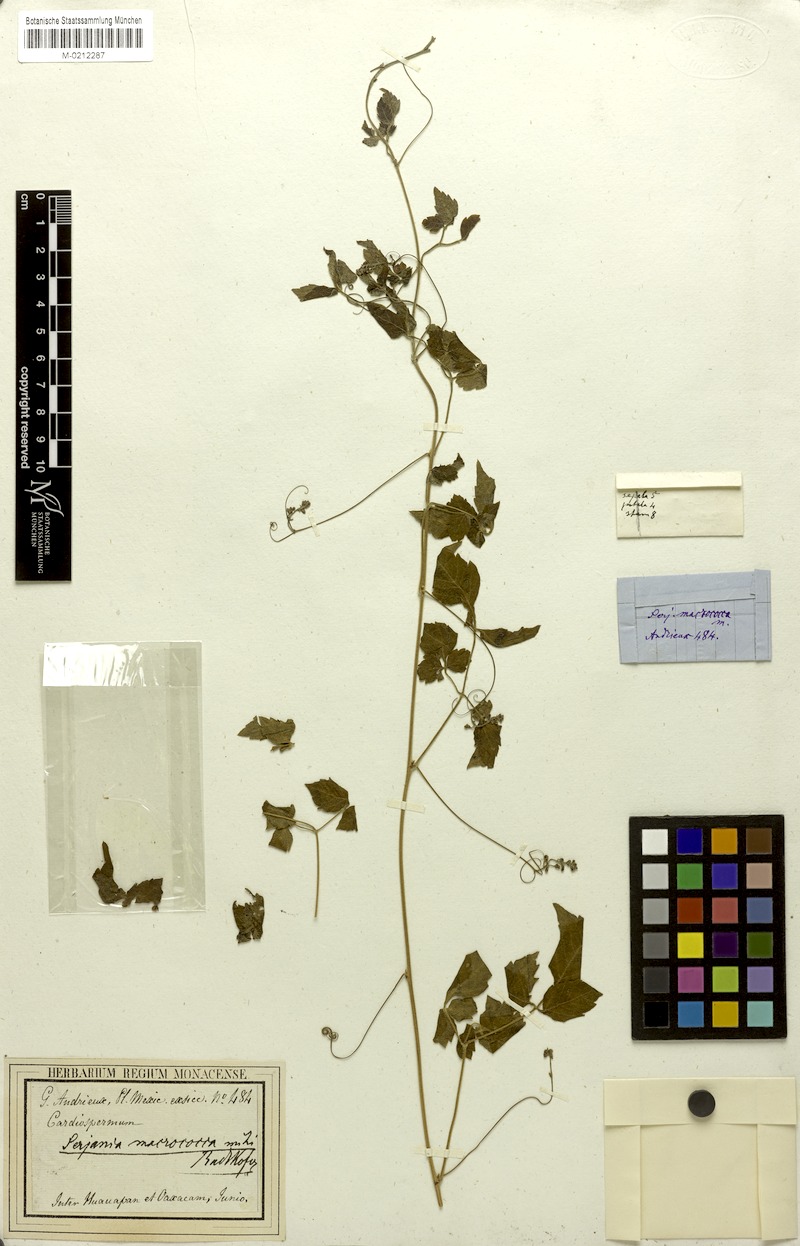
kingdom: Plantae
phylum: Tracheophyta
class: Magnoliopsida
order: Sapindales
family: Sapindaceae
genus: Serjania
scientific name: Serjania macrococca
